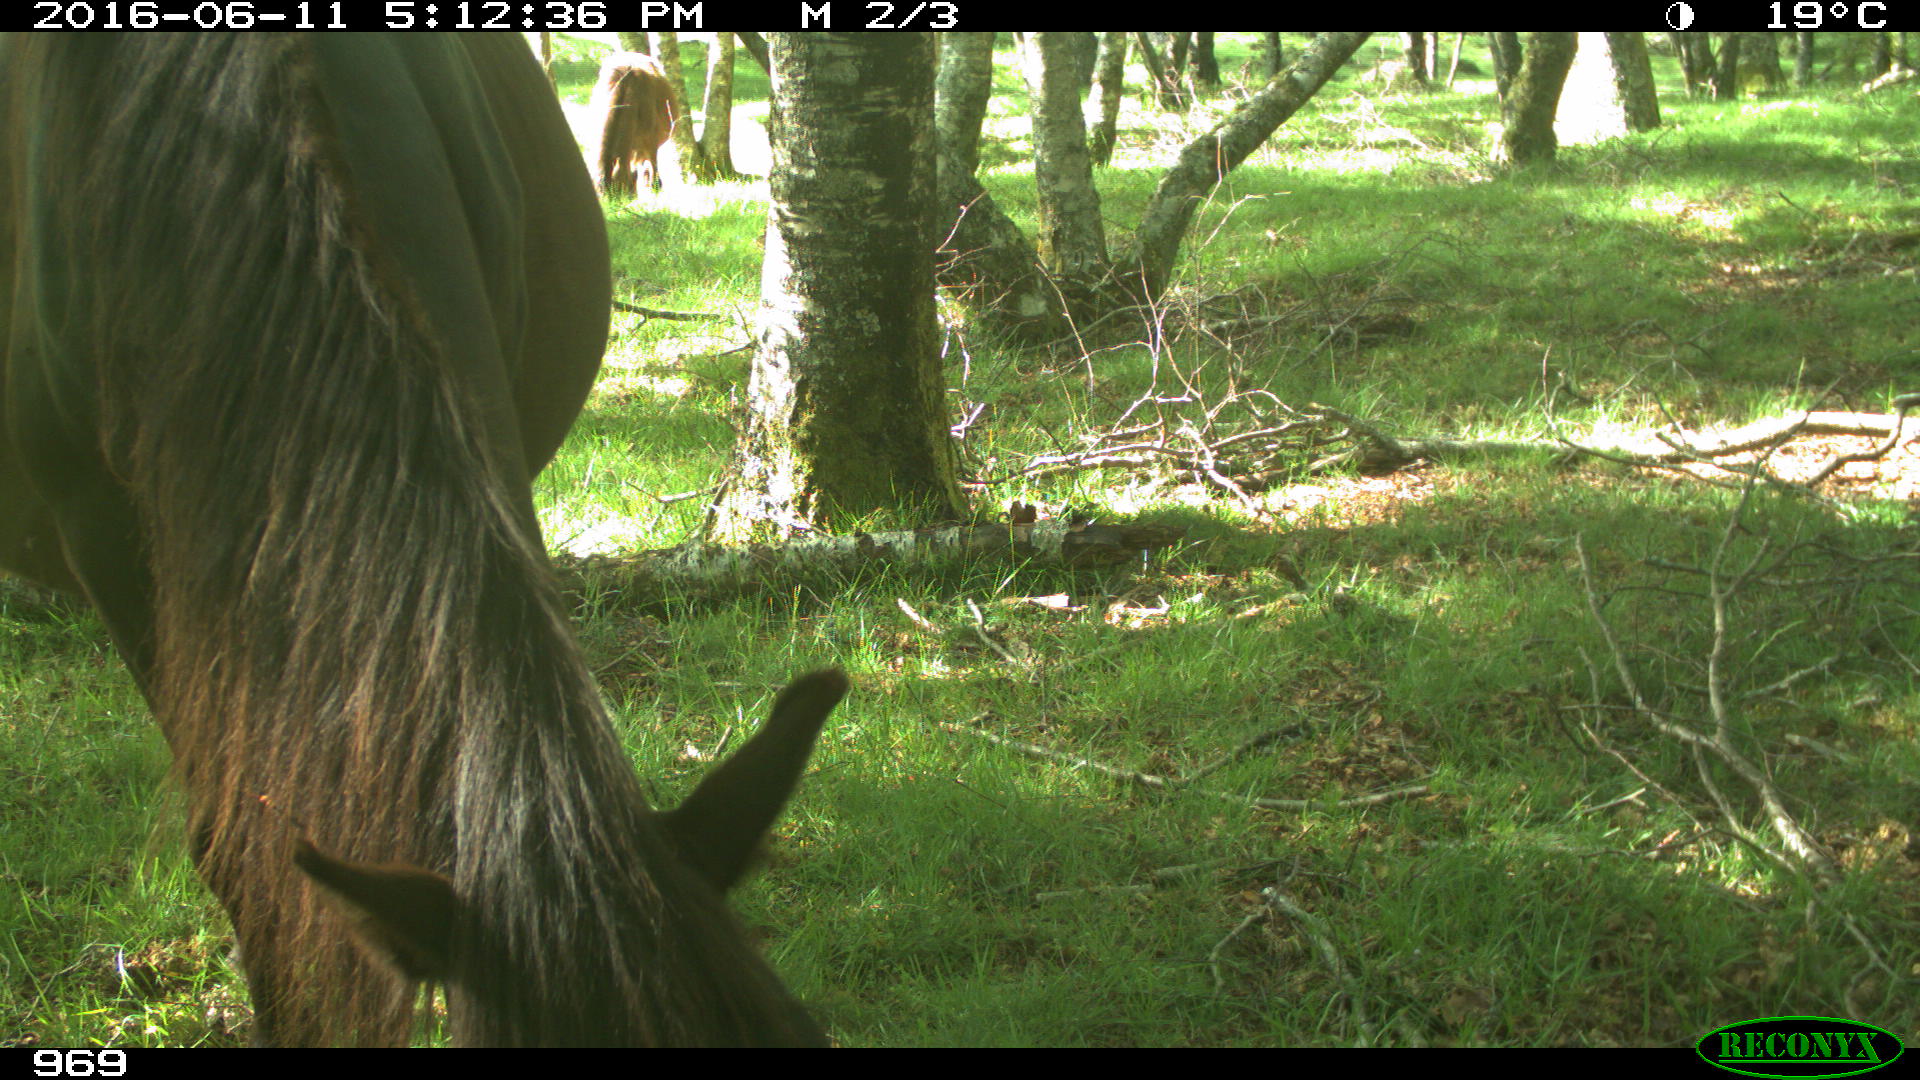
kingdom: Animalia
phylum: Chordata
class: Mammalia
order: Perissodactyla
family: Equidae
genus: Equus
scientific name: Equus caballus
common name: Horse
